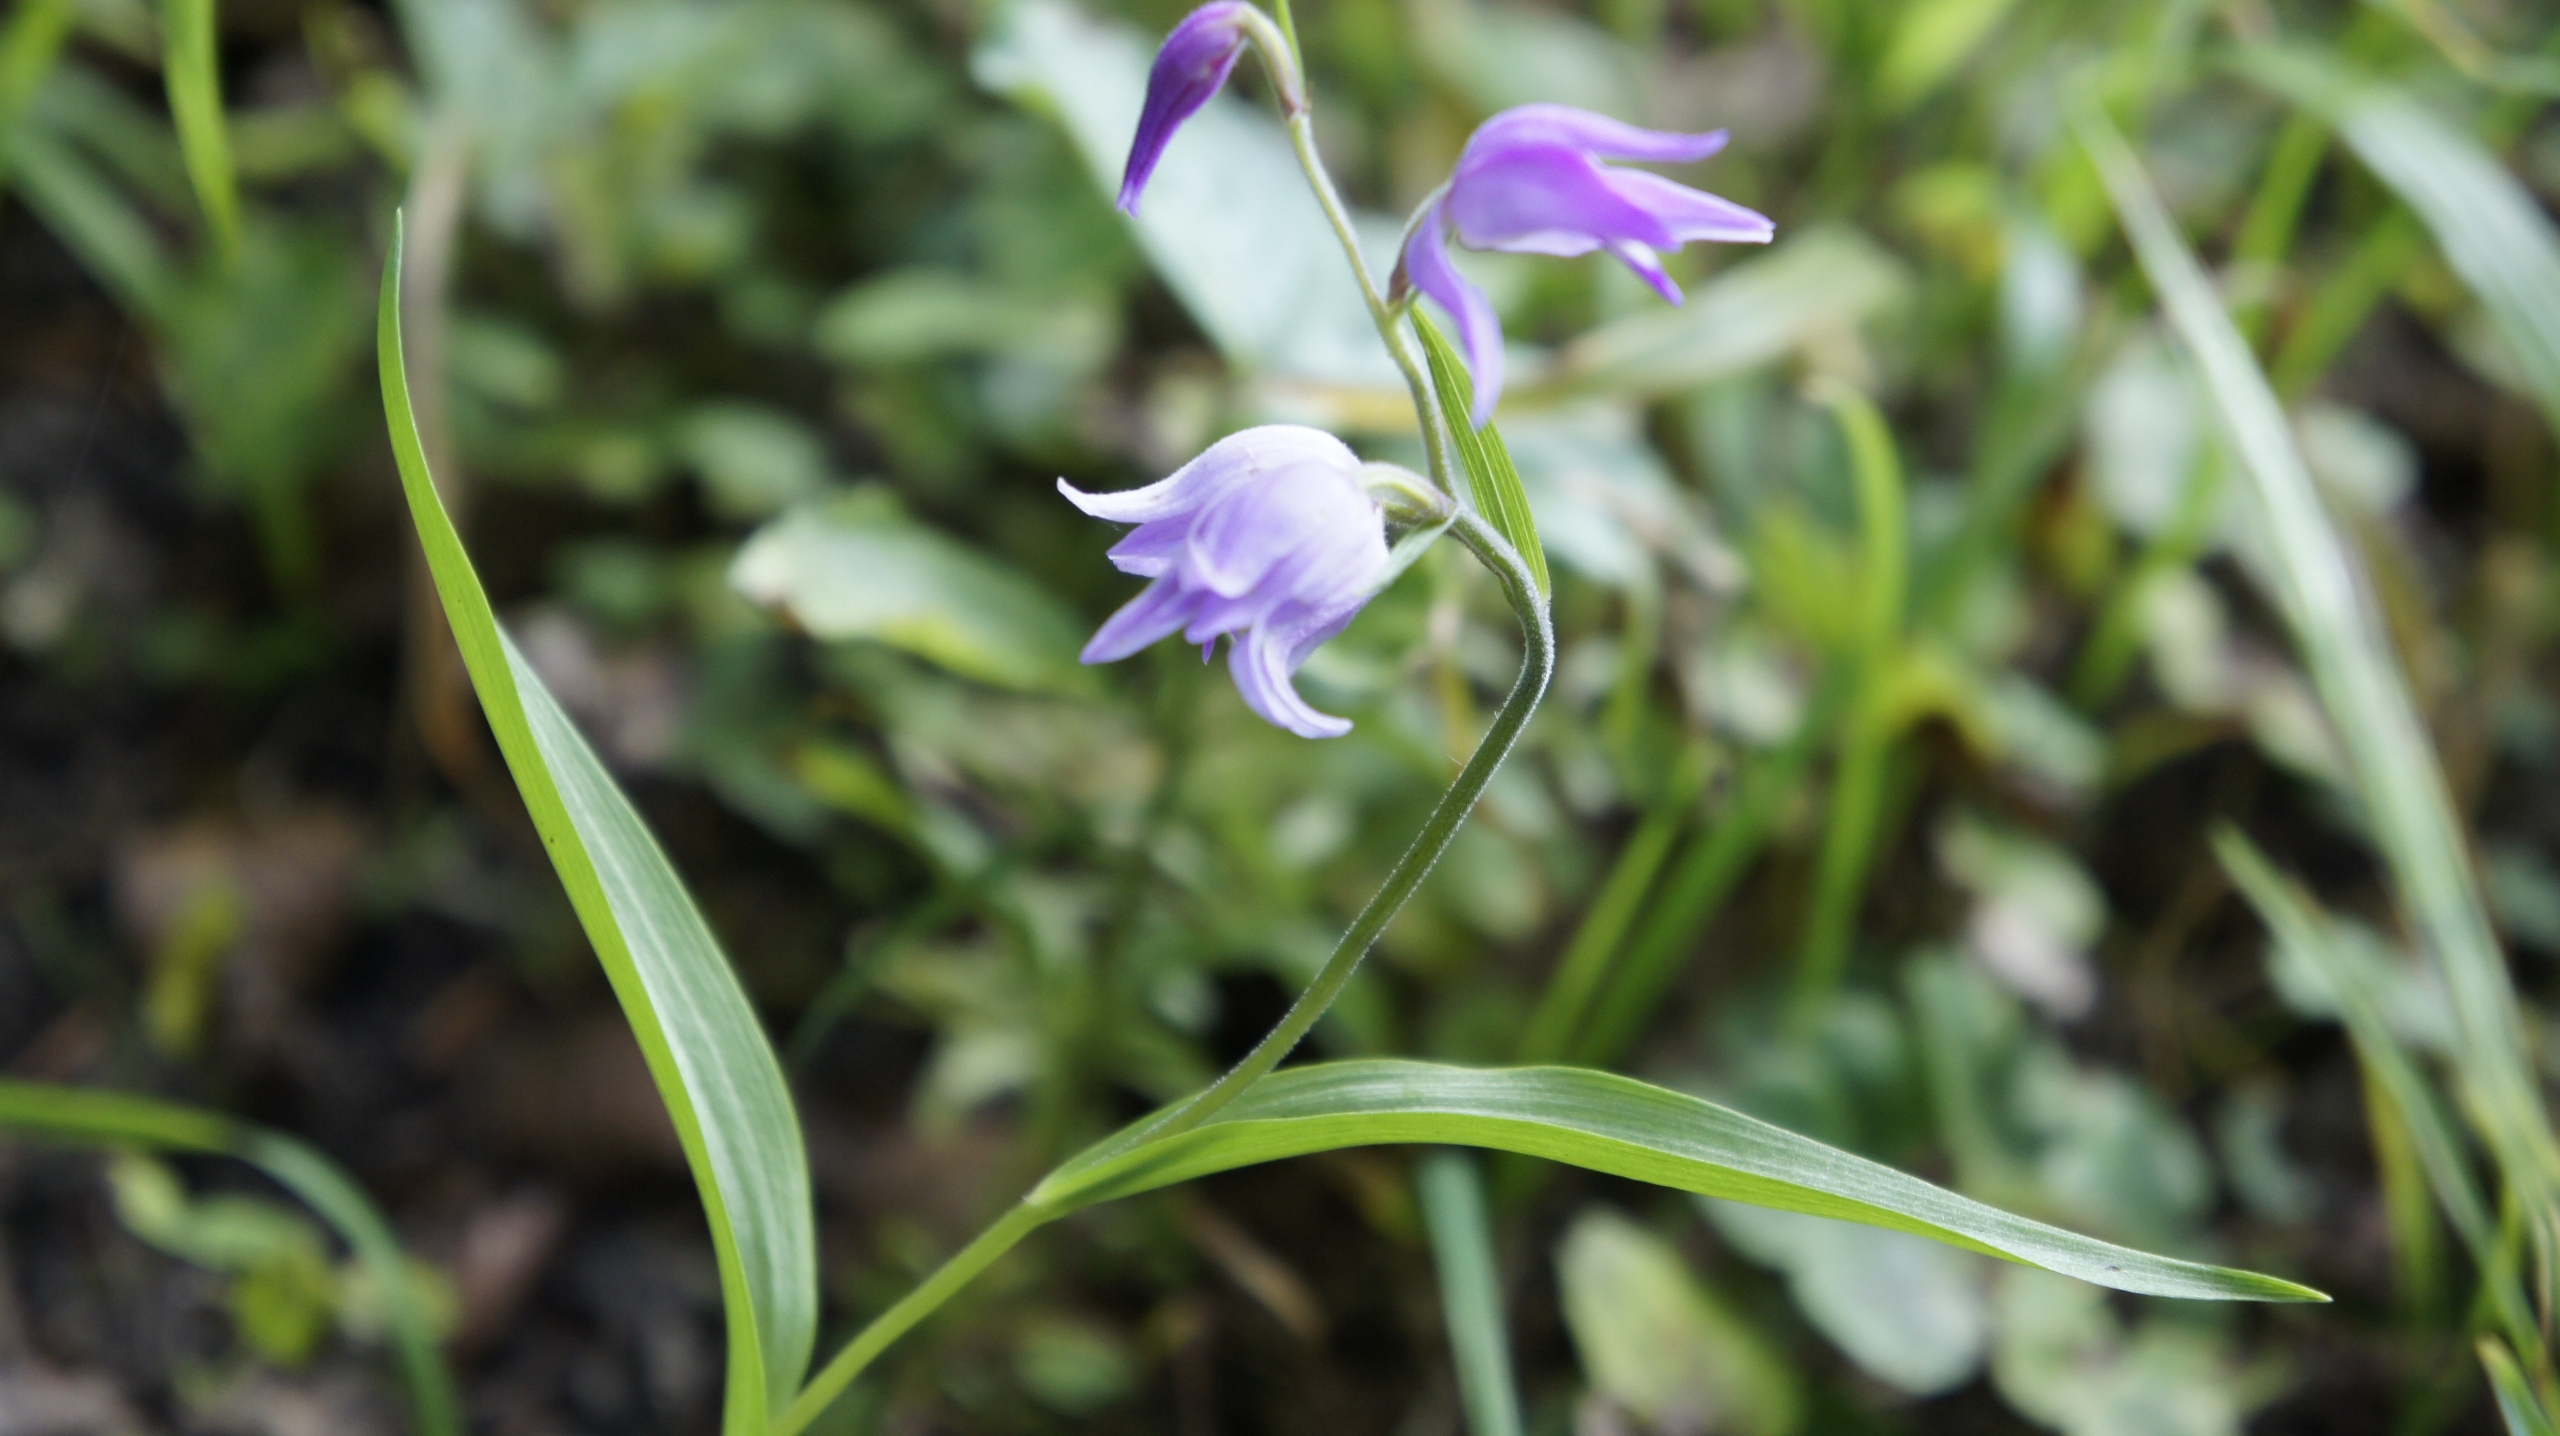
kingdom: Plantae
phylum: Tracheophyta
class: Liliopsida
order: Asparagales
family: Orchidaceae
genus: Cephalanthera
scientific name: Cephalanthera rubra
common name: Rød skovlilje
